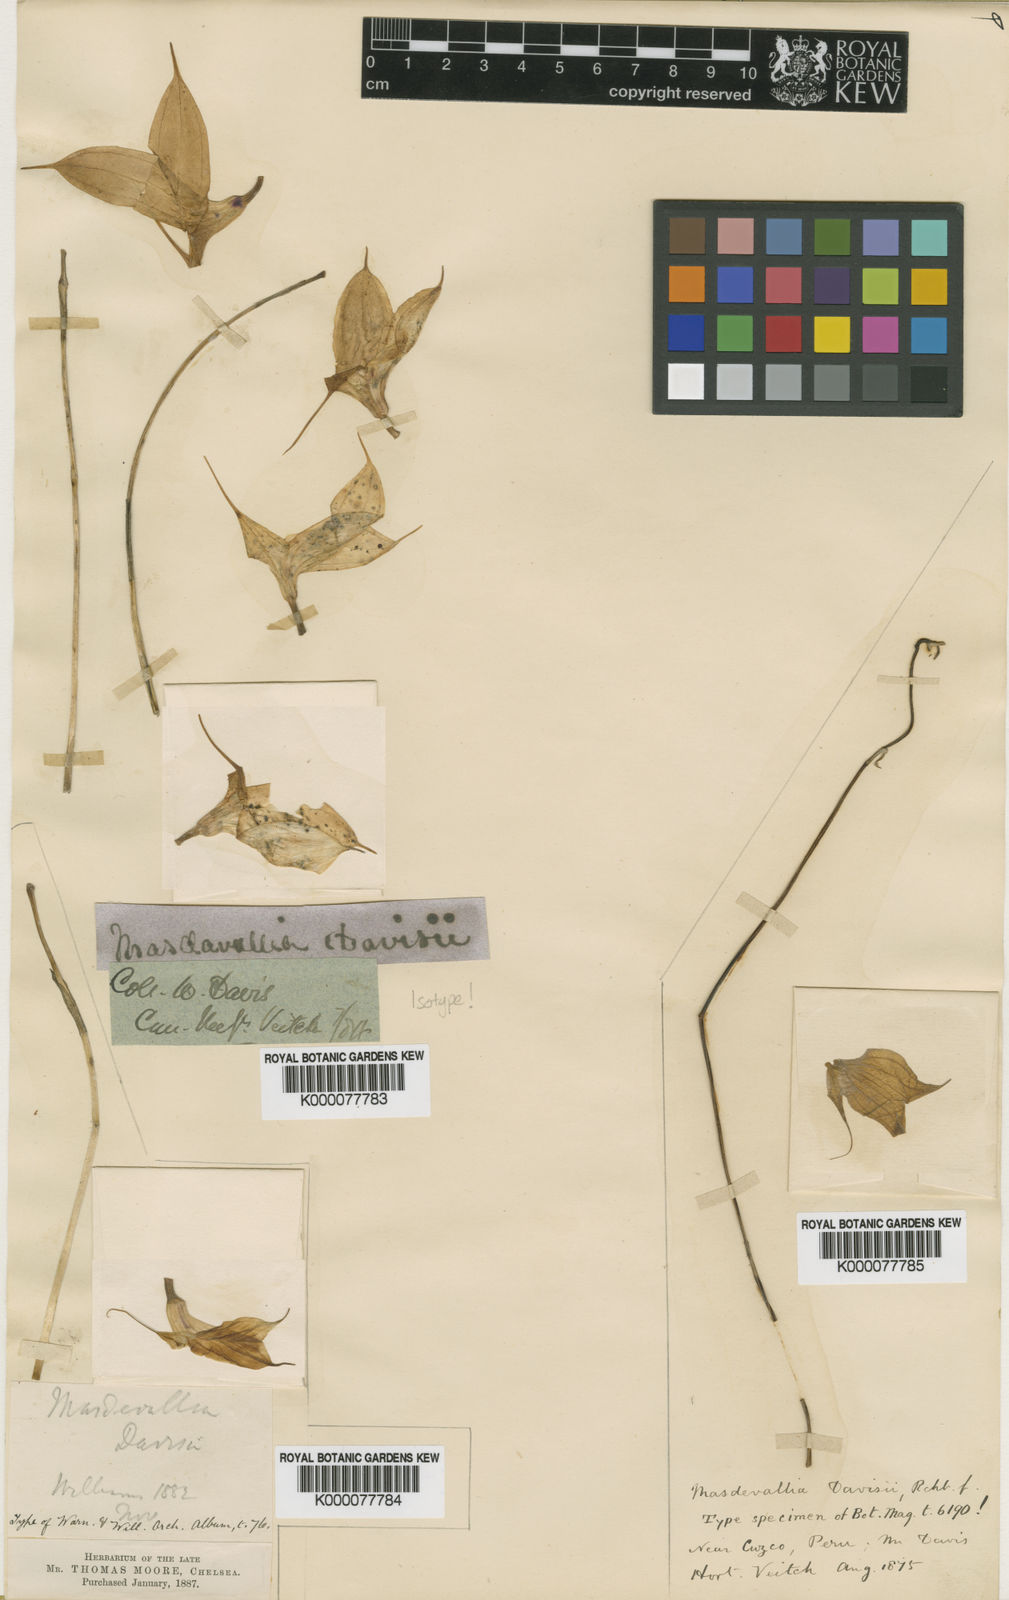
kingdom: Plantae
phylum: Tracheophyta
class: Liliopsida
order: Asparagales
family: Orchidaceae
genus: Masdevallia
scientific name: Masdevallia davisii
